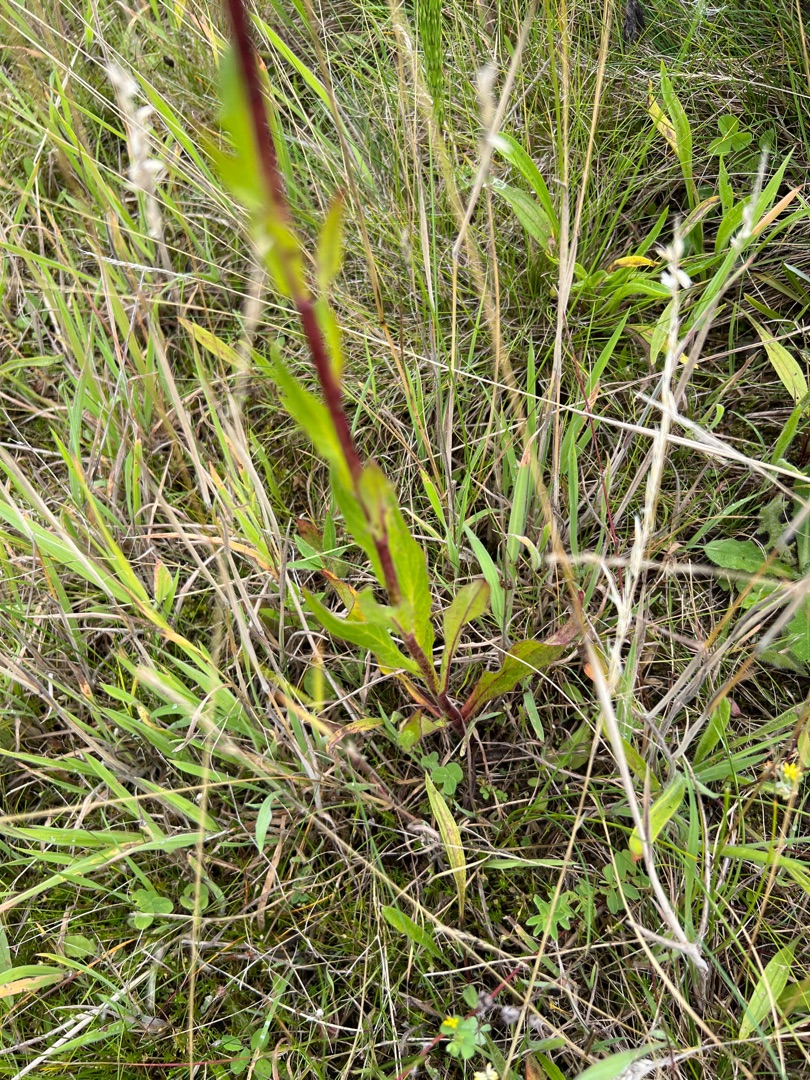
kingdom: Plantae
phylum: Tracheophyta
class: Magnoliopsida
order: Asterales
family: Asteraceae
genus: Hieracium
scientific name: Hieracium
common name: Høgeurt (Hieracium-slægten)
